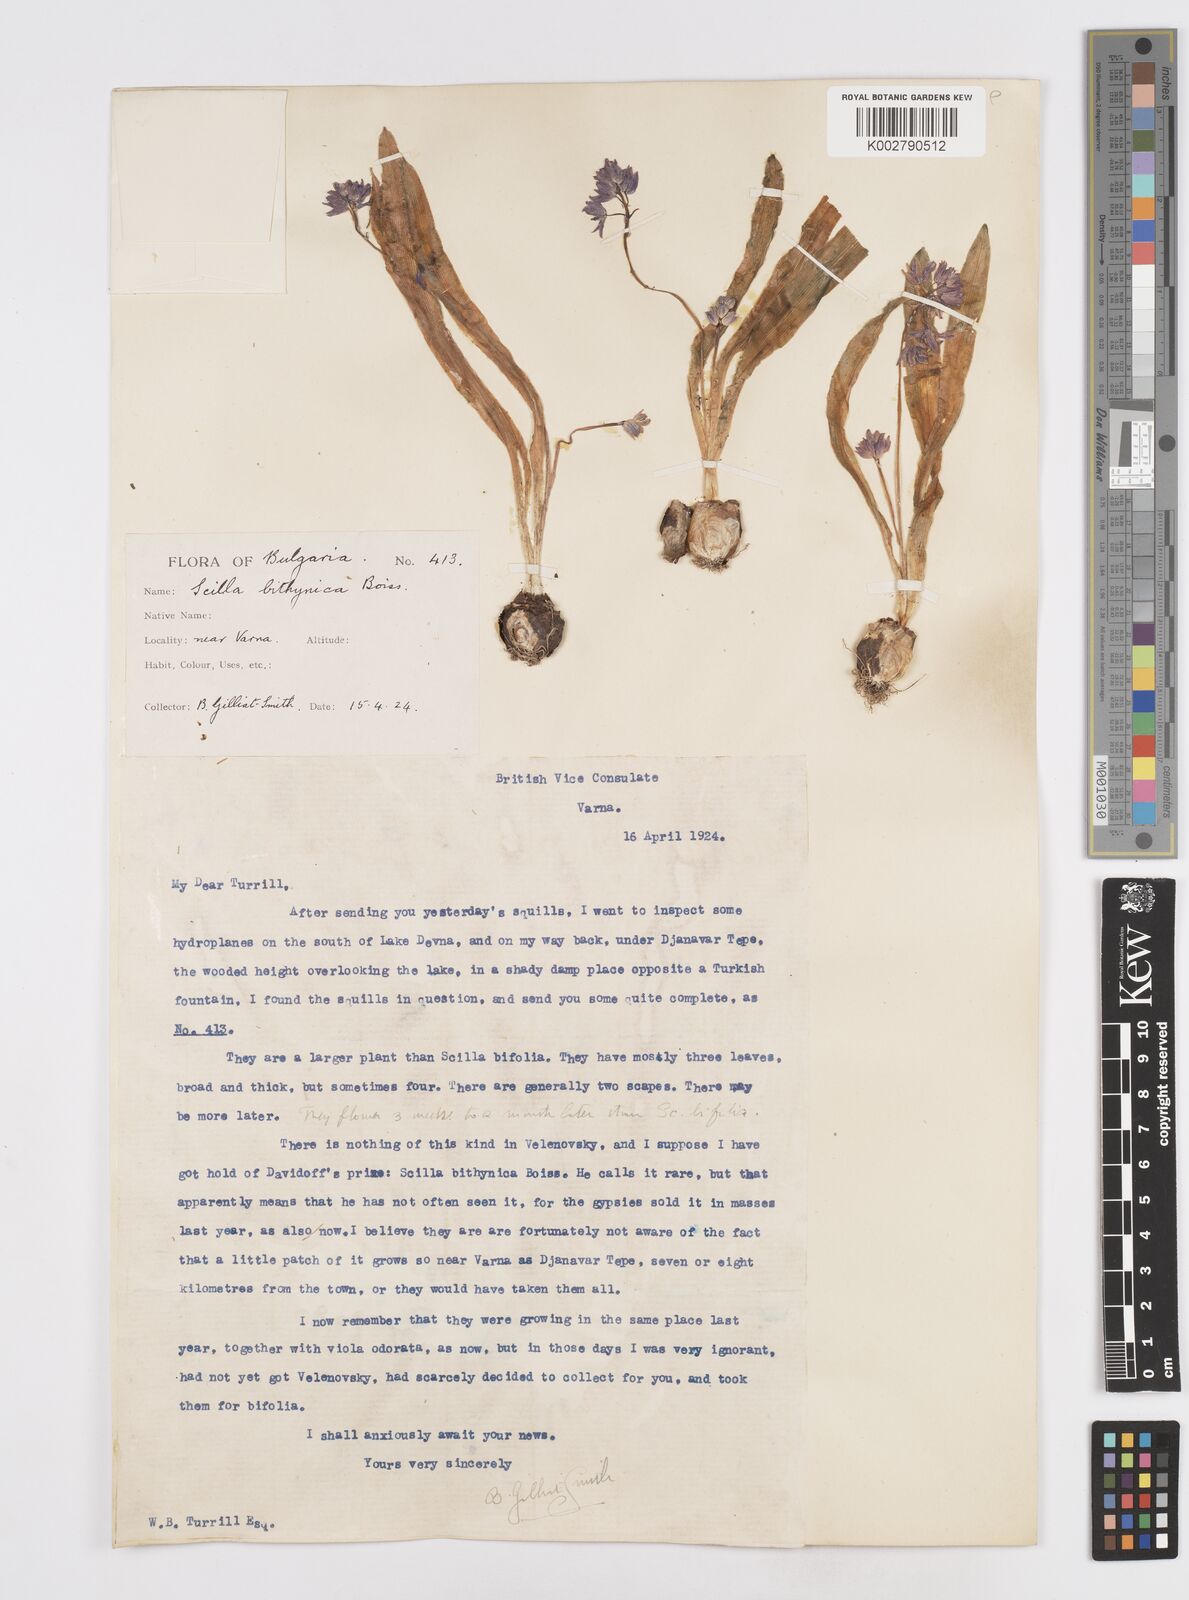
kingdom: Plantae
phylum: Tracheophyta
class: Liliopsida
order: Asparagales
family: Asparagaceae
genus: Scilla
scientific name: Scilla bithynica
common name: Turkish squill
